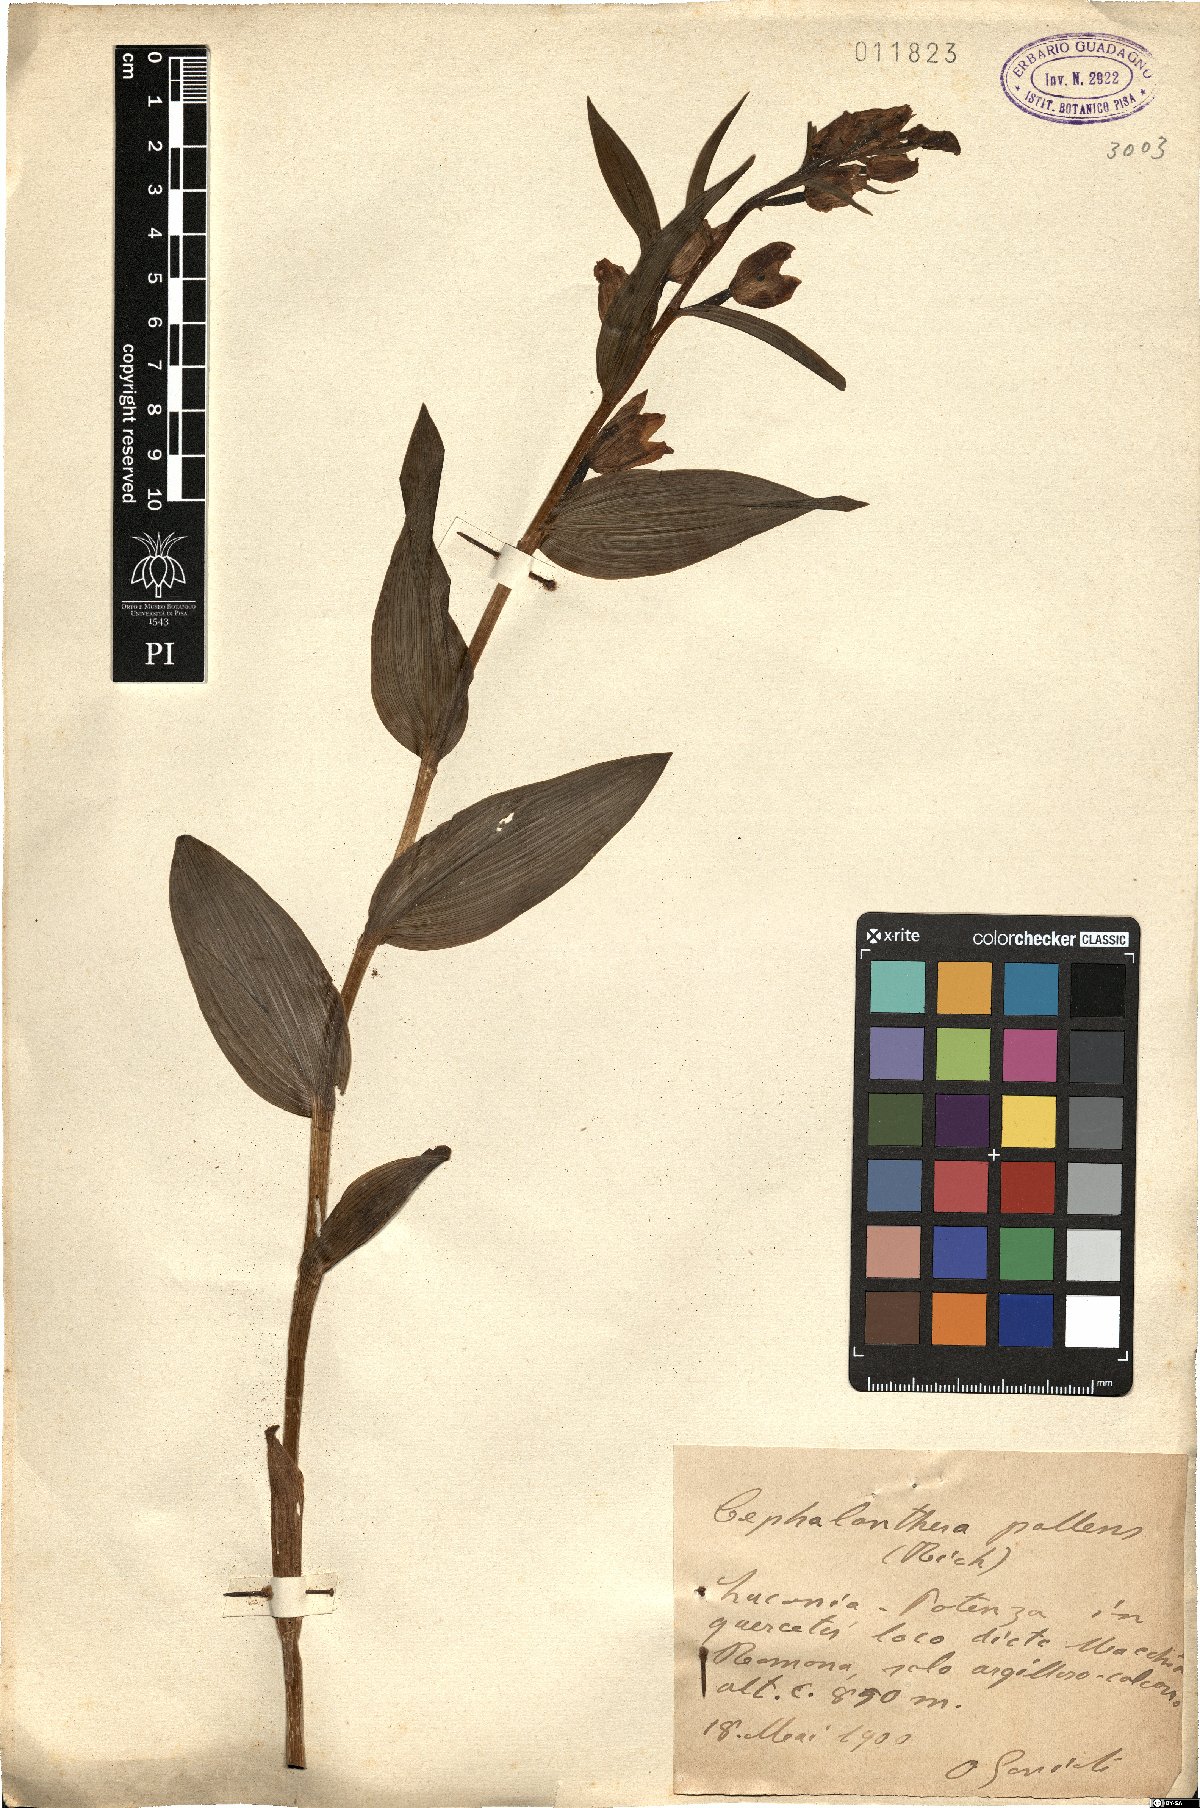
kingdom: Plantae
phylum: Tracheophyta
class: Liliopsida
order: Asparagales
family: Orchidaceae
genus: Cephalanthera
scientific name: Cephalanthera longifolia
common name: Narrow-leaved helleborine
